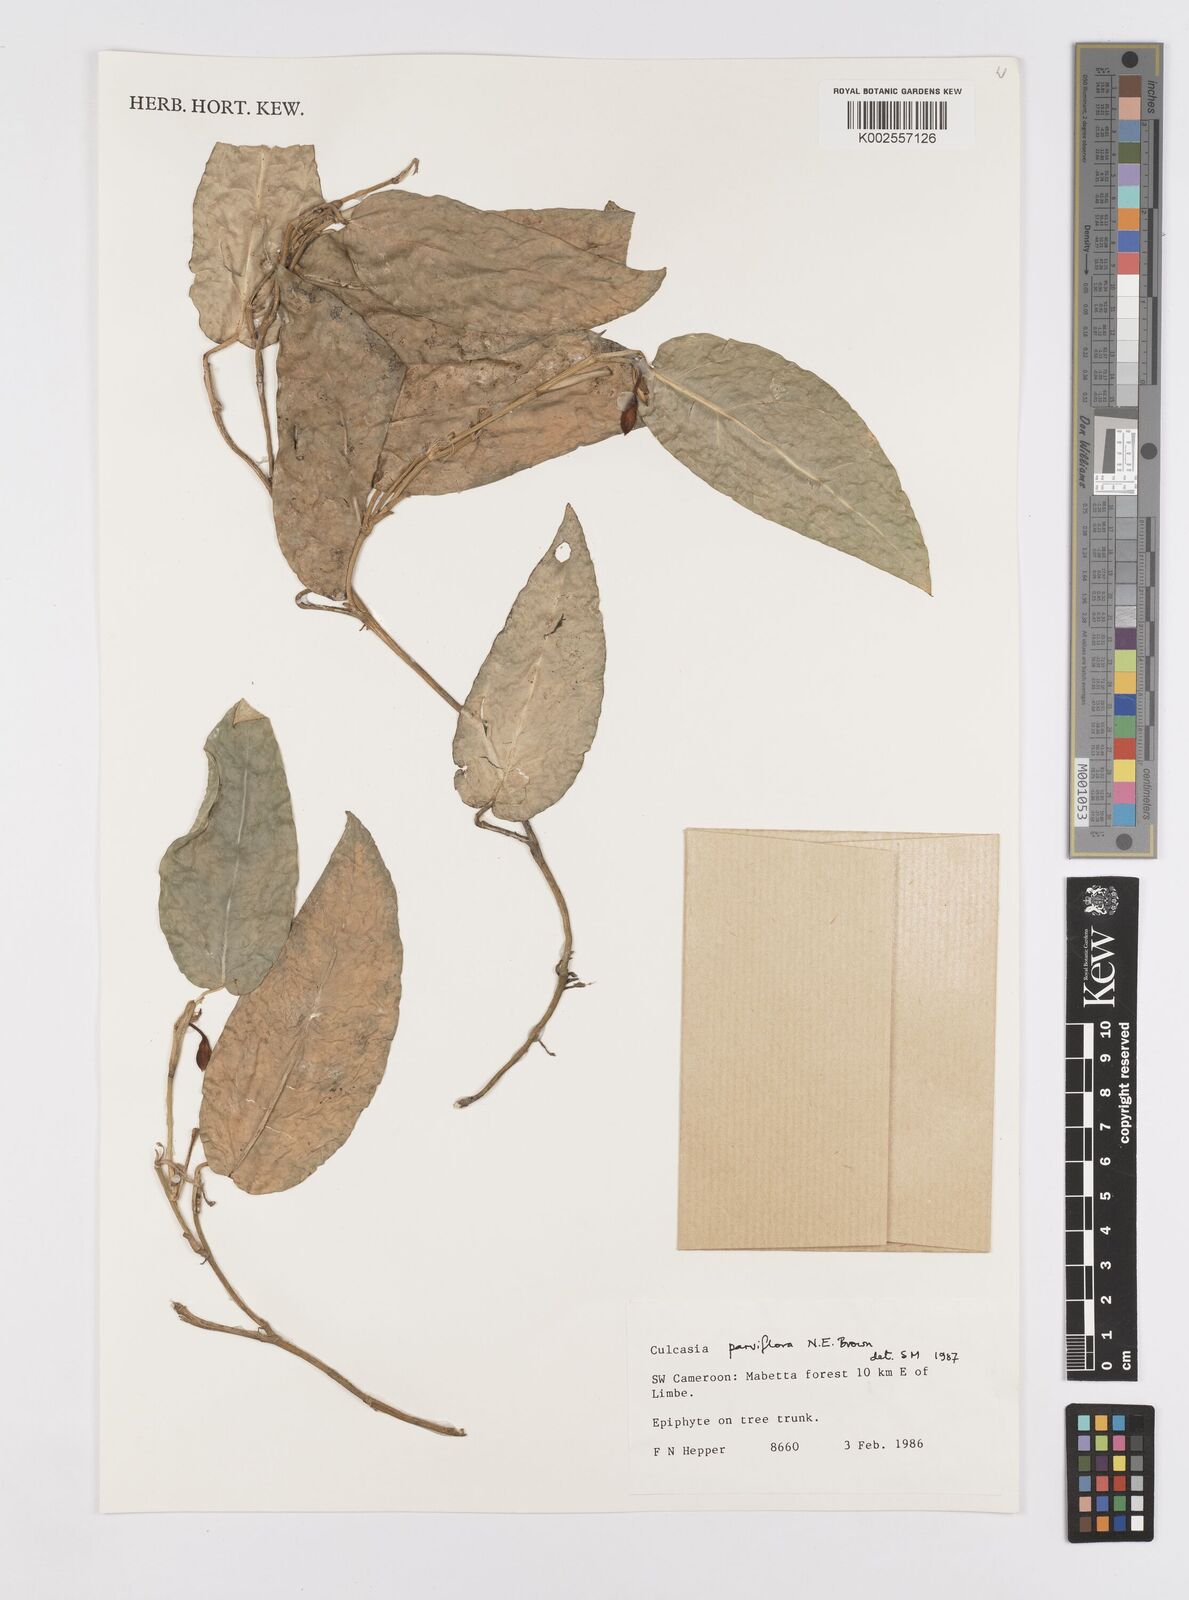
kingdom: Plantae
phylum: Tracheophyta
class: Liliopsida
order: Alismatales
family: Araceae
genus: Culcasia
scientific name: Culcasia parviflora
